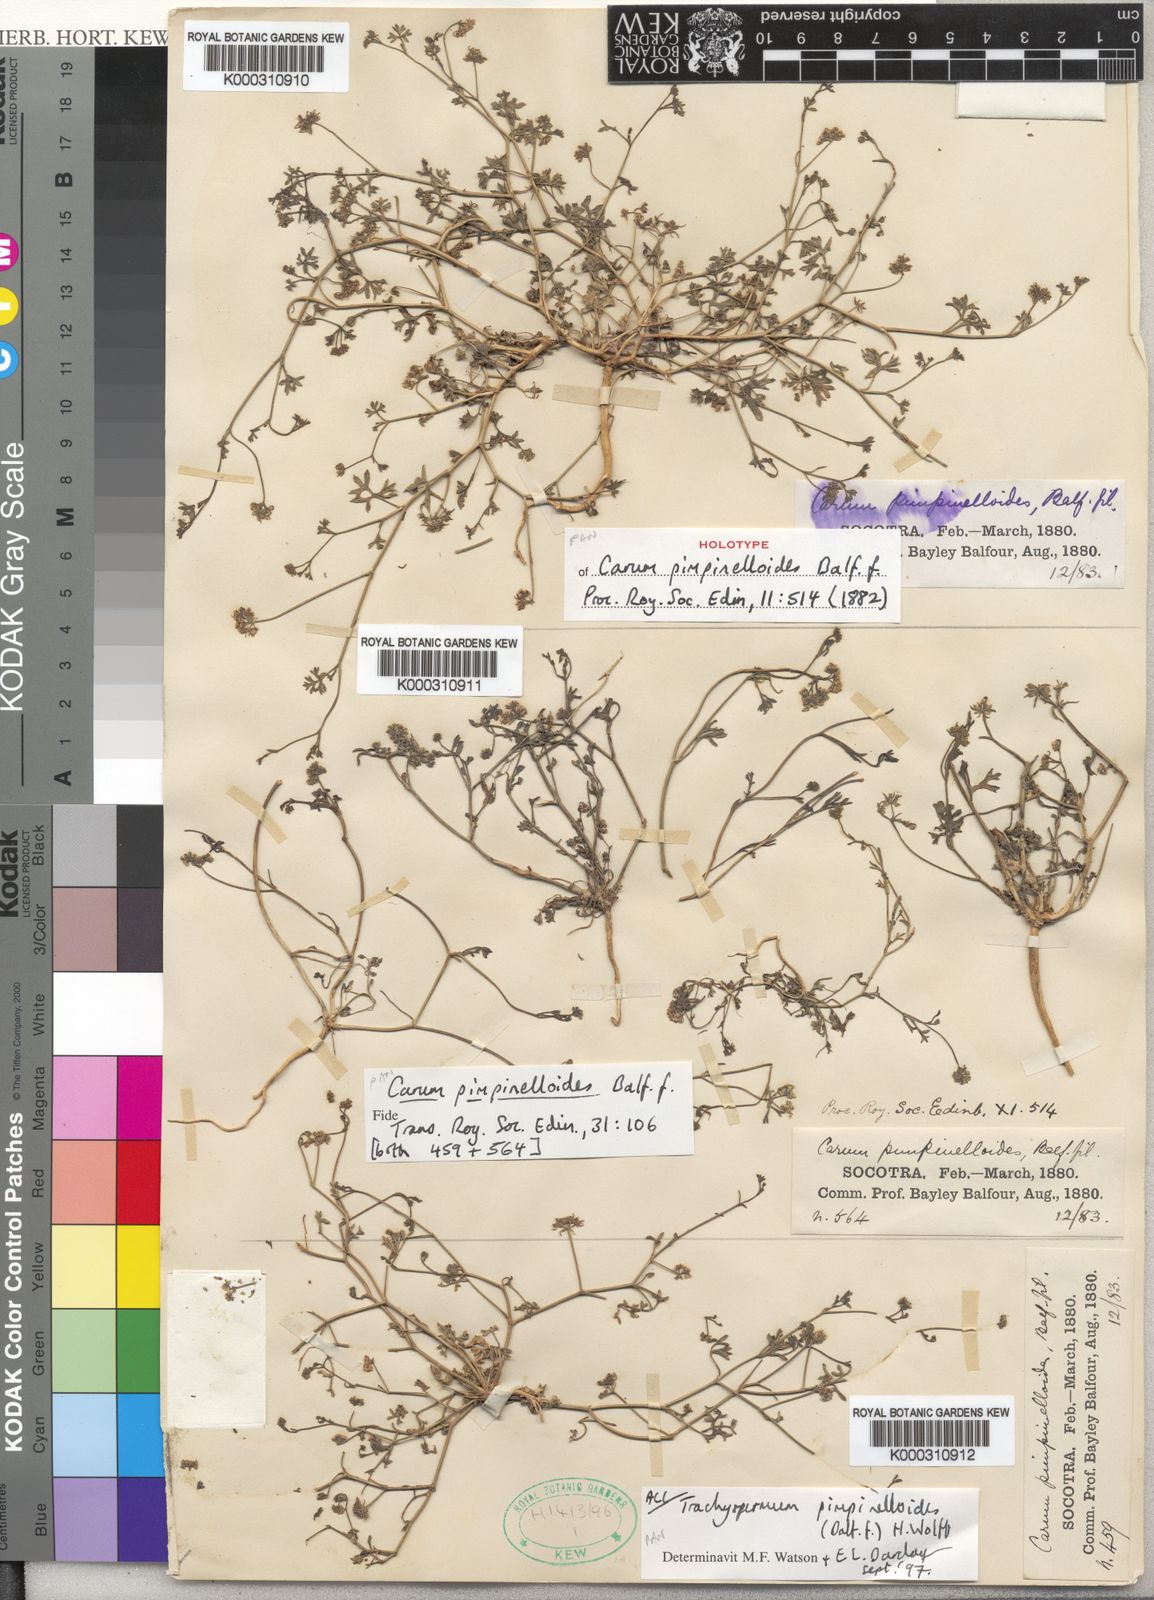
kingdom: Plantae
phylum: Tracheophyta
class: Magnoliopsida
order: Apiales
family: Apiaceae
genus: Trachyspermum
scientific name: Trachyspermum pimpinelloides
